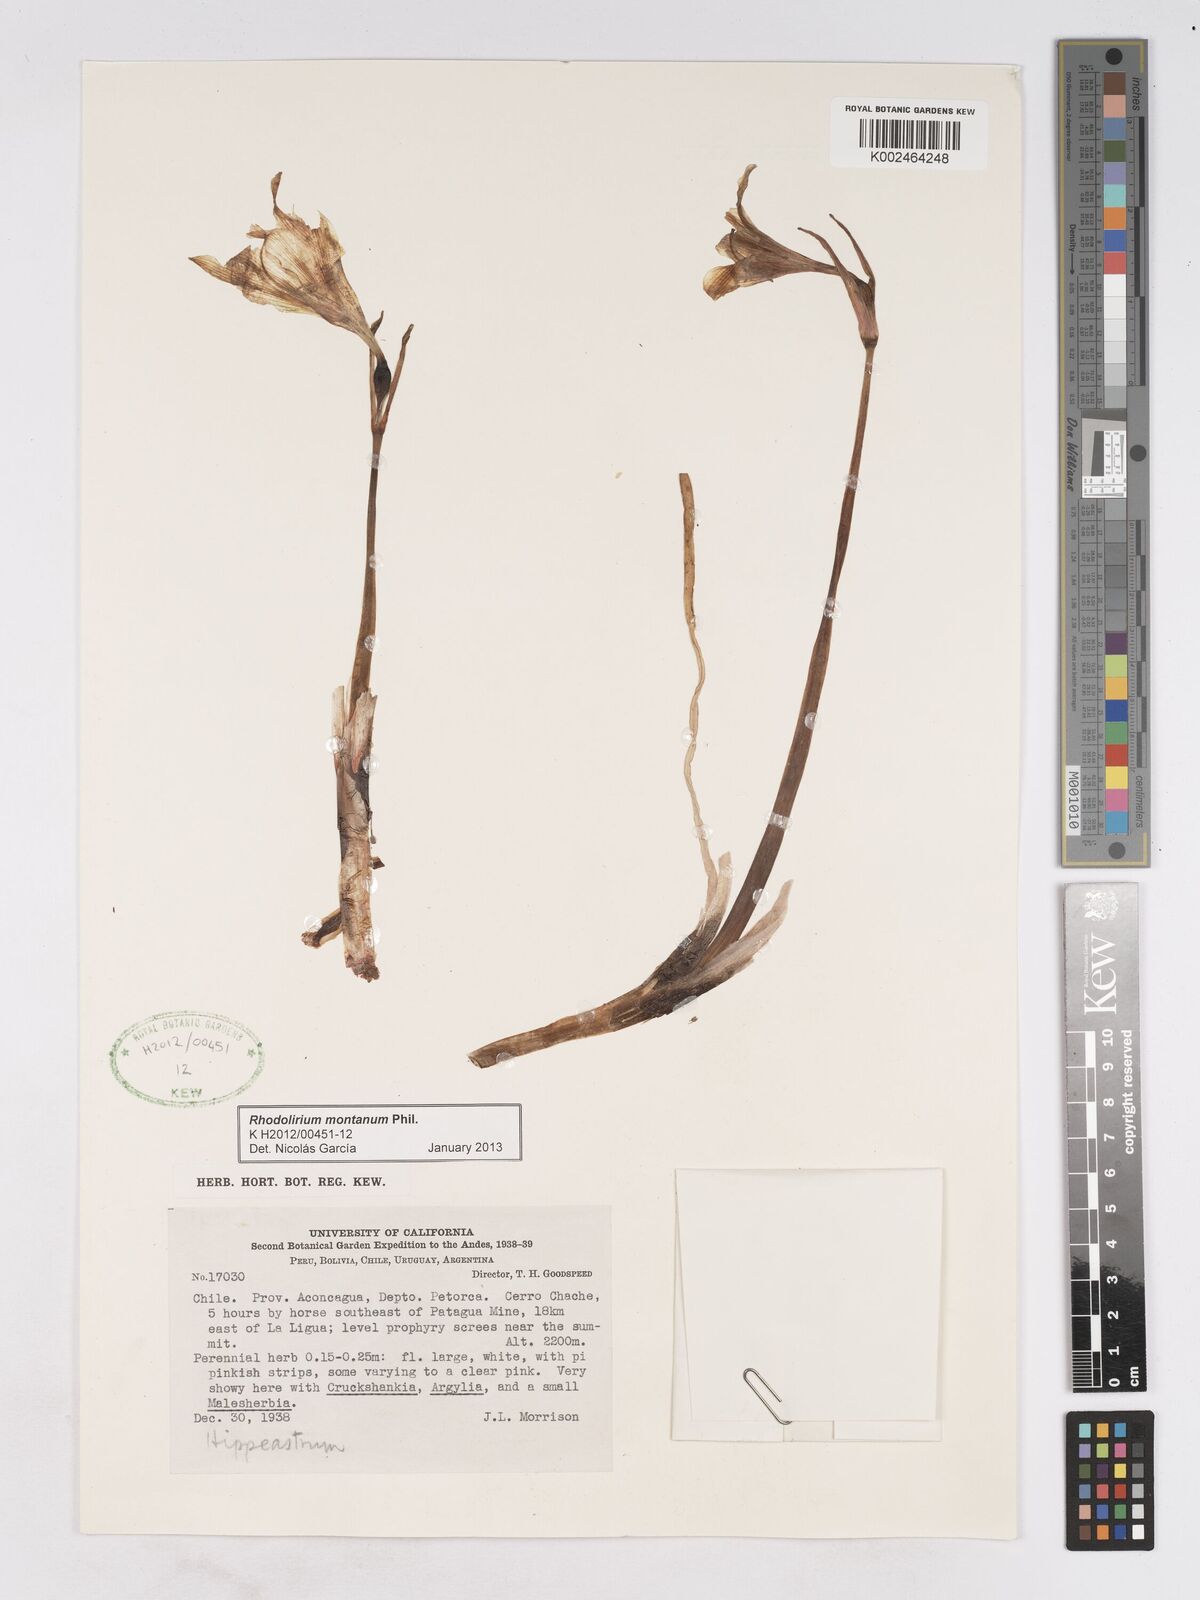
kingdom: Plantae
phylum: Tracheophyta
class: Liliopsida
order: Asparagales
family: Amaryllidaceae
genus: Rhodolirium
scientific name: Rhodolirium montanum
